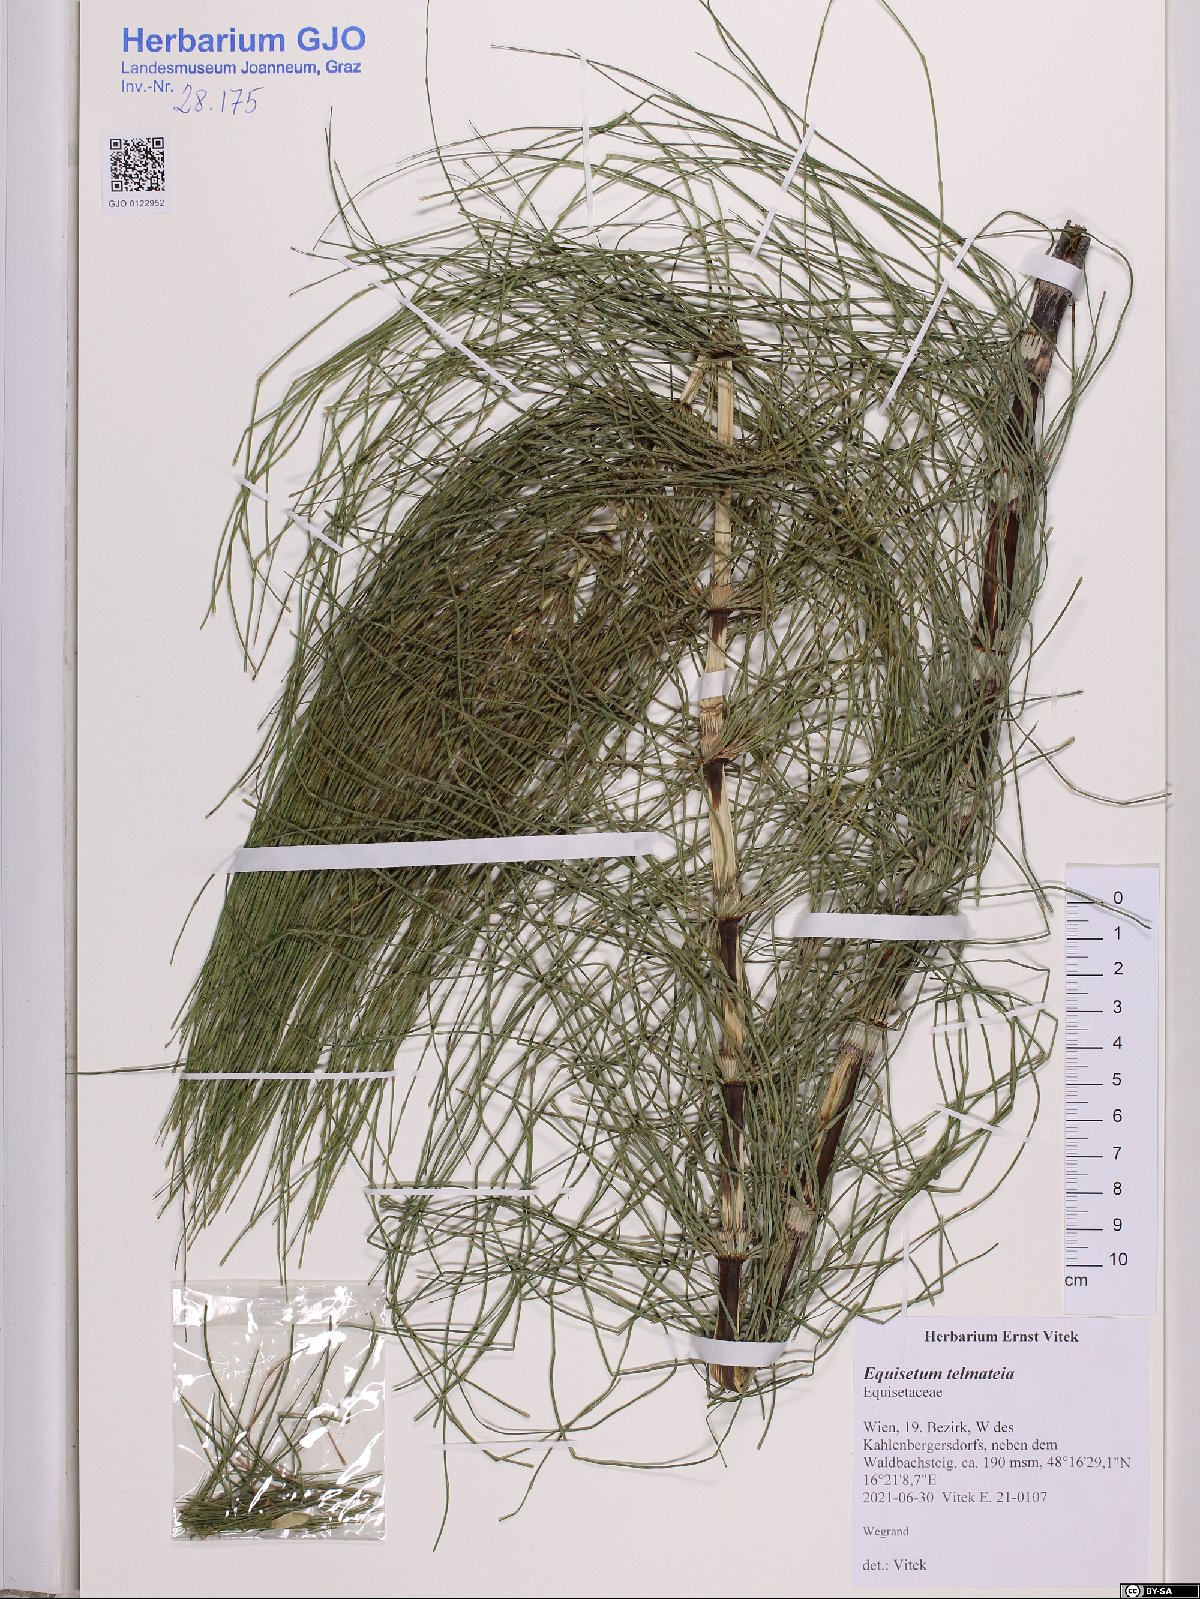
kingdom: Plantae
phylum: Tracheophyta
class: Polypodiopsida
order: Equisetales
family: Equisetaceae
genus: Equisetum
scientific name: Equisetum telmateia
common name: Great horsetail
